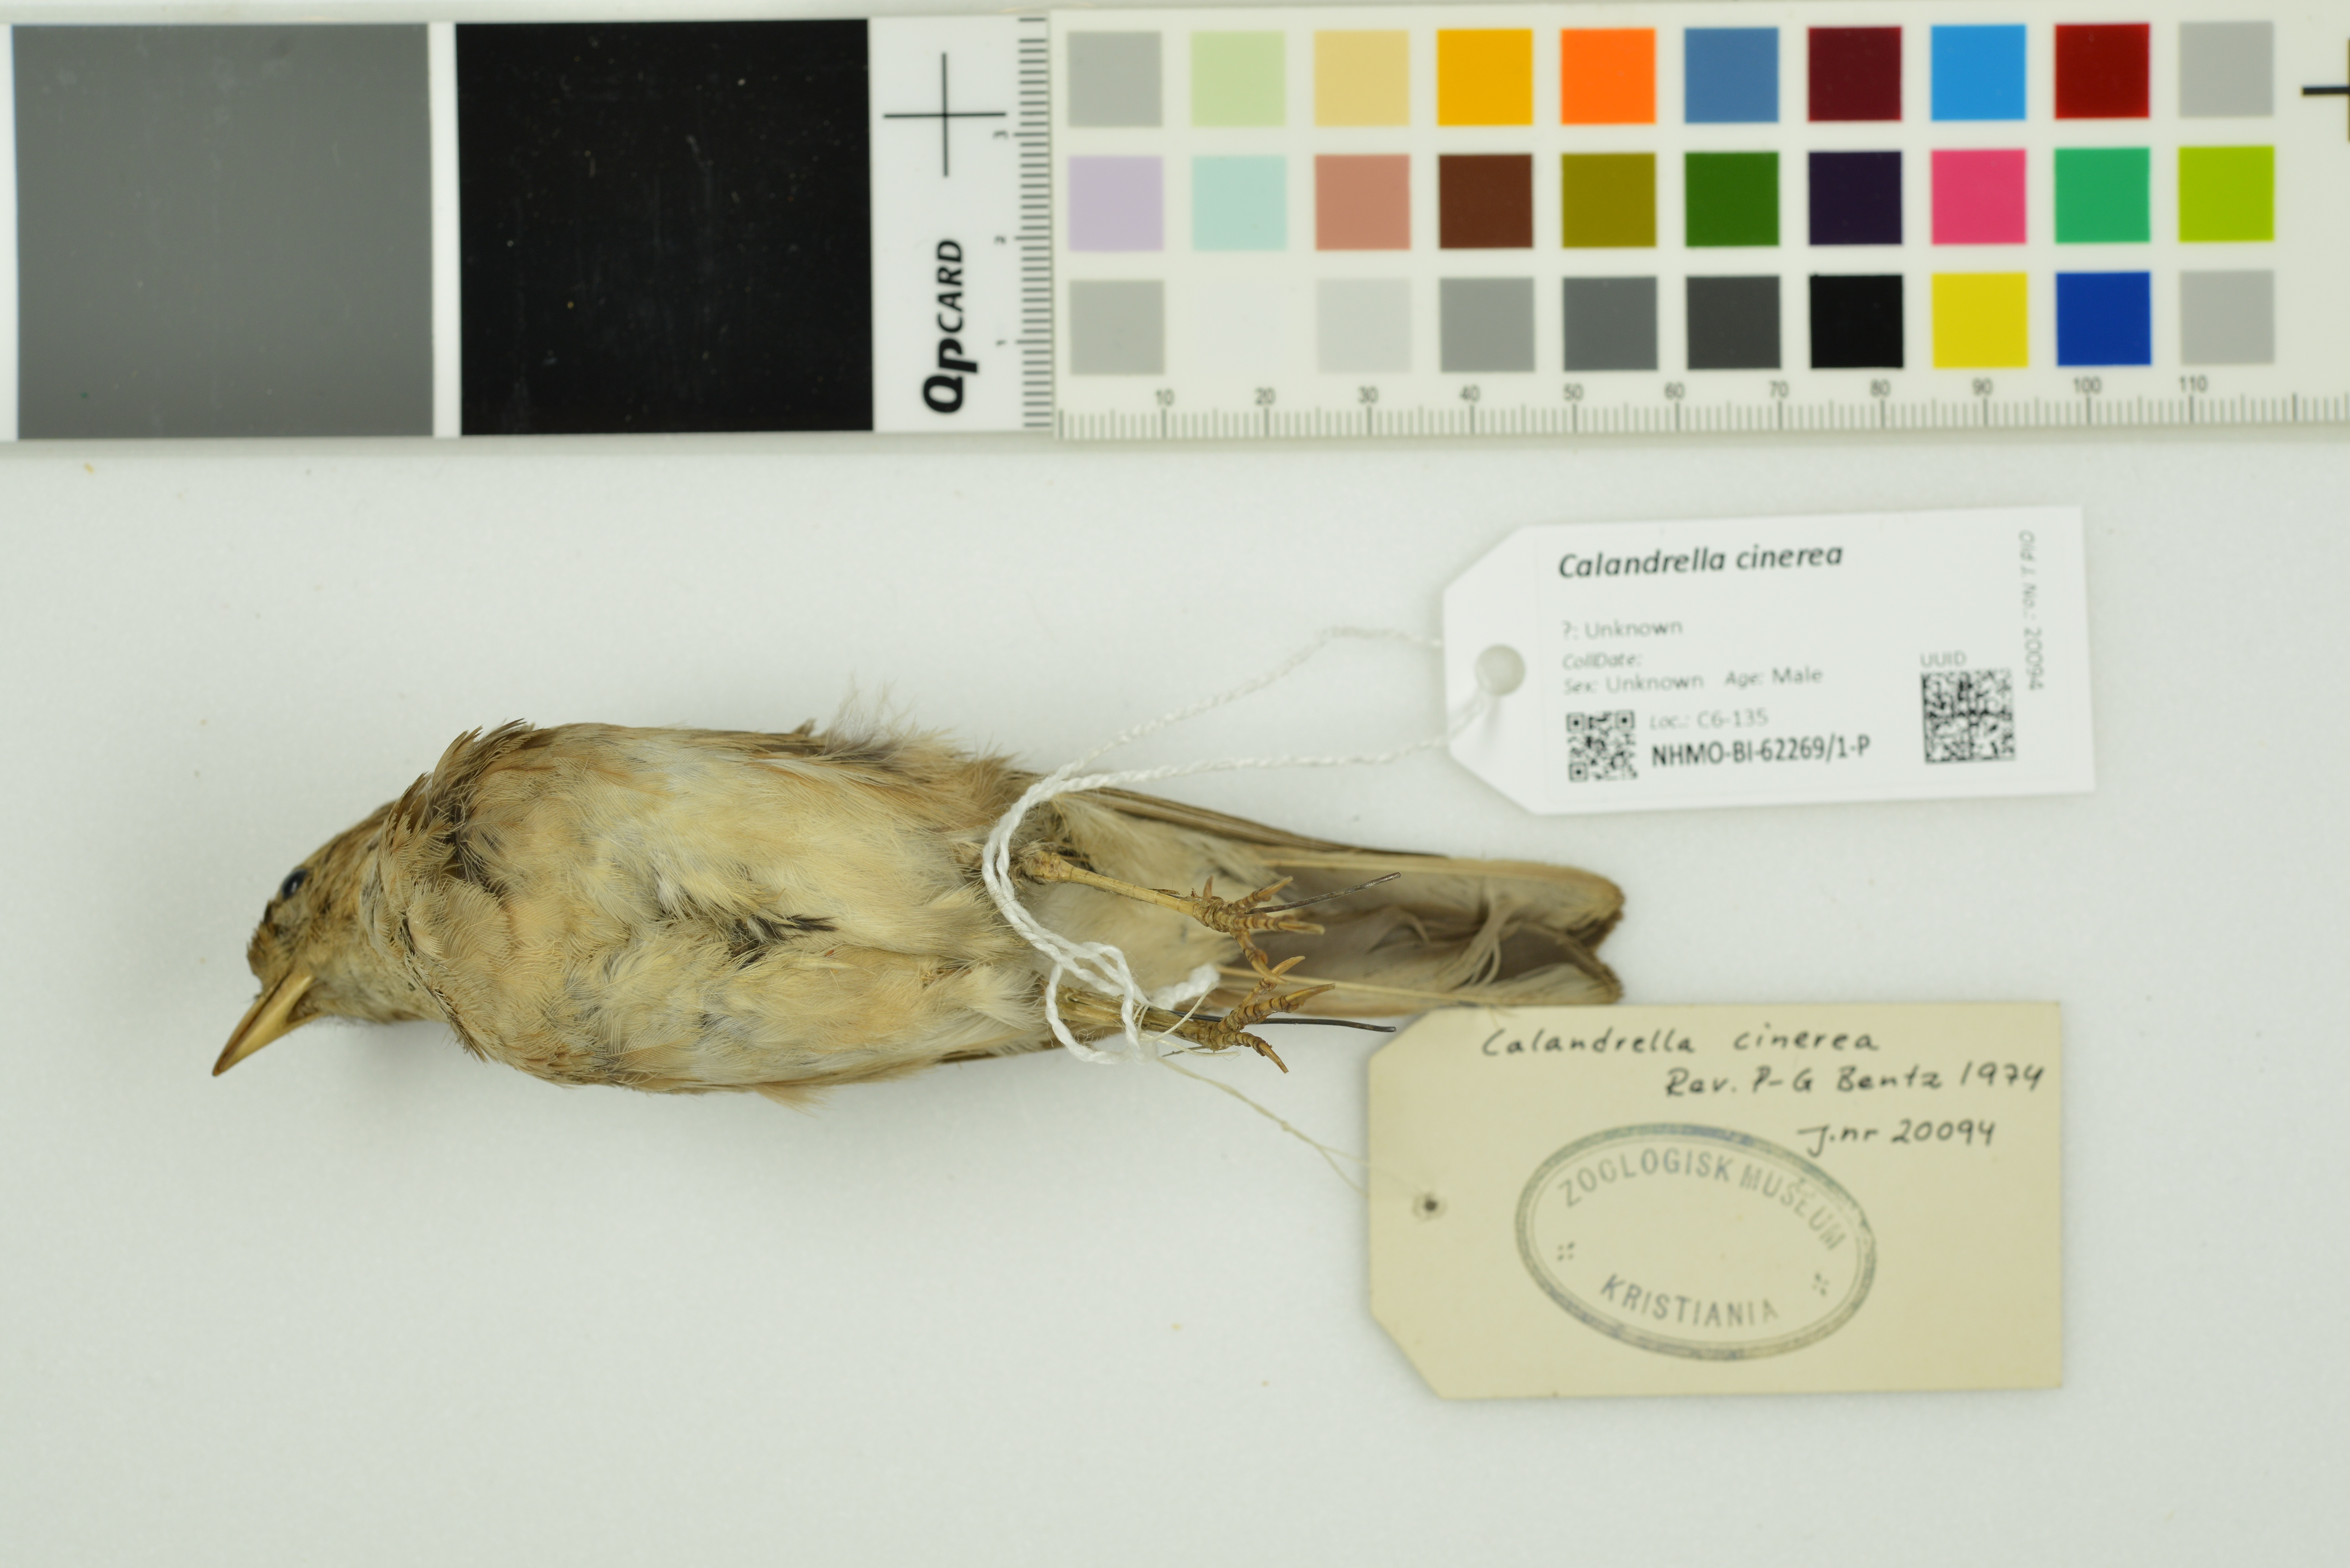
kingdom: Animalia
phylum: Chordata
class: Aves
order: Passeriformes
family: Alaudidae
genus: Calandrella
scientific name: Calandrella cinerea
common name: Red-capped lark
